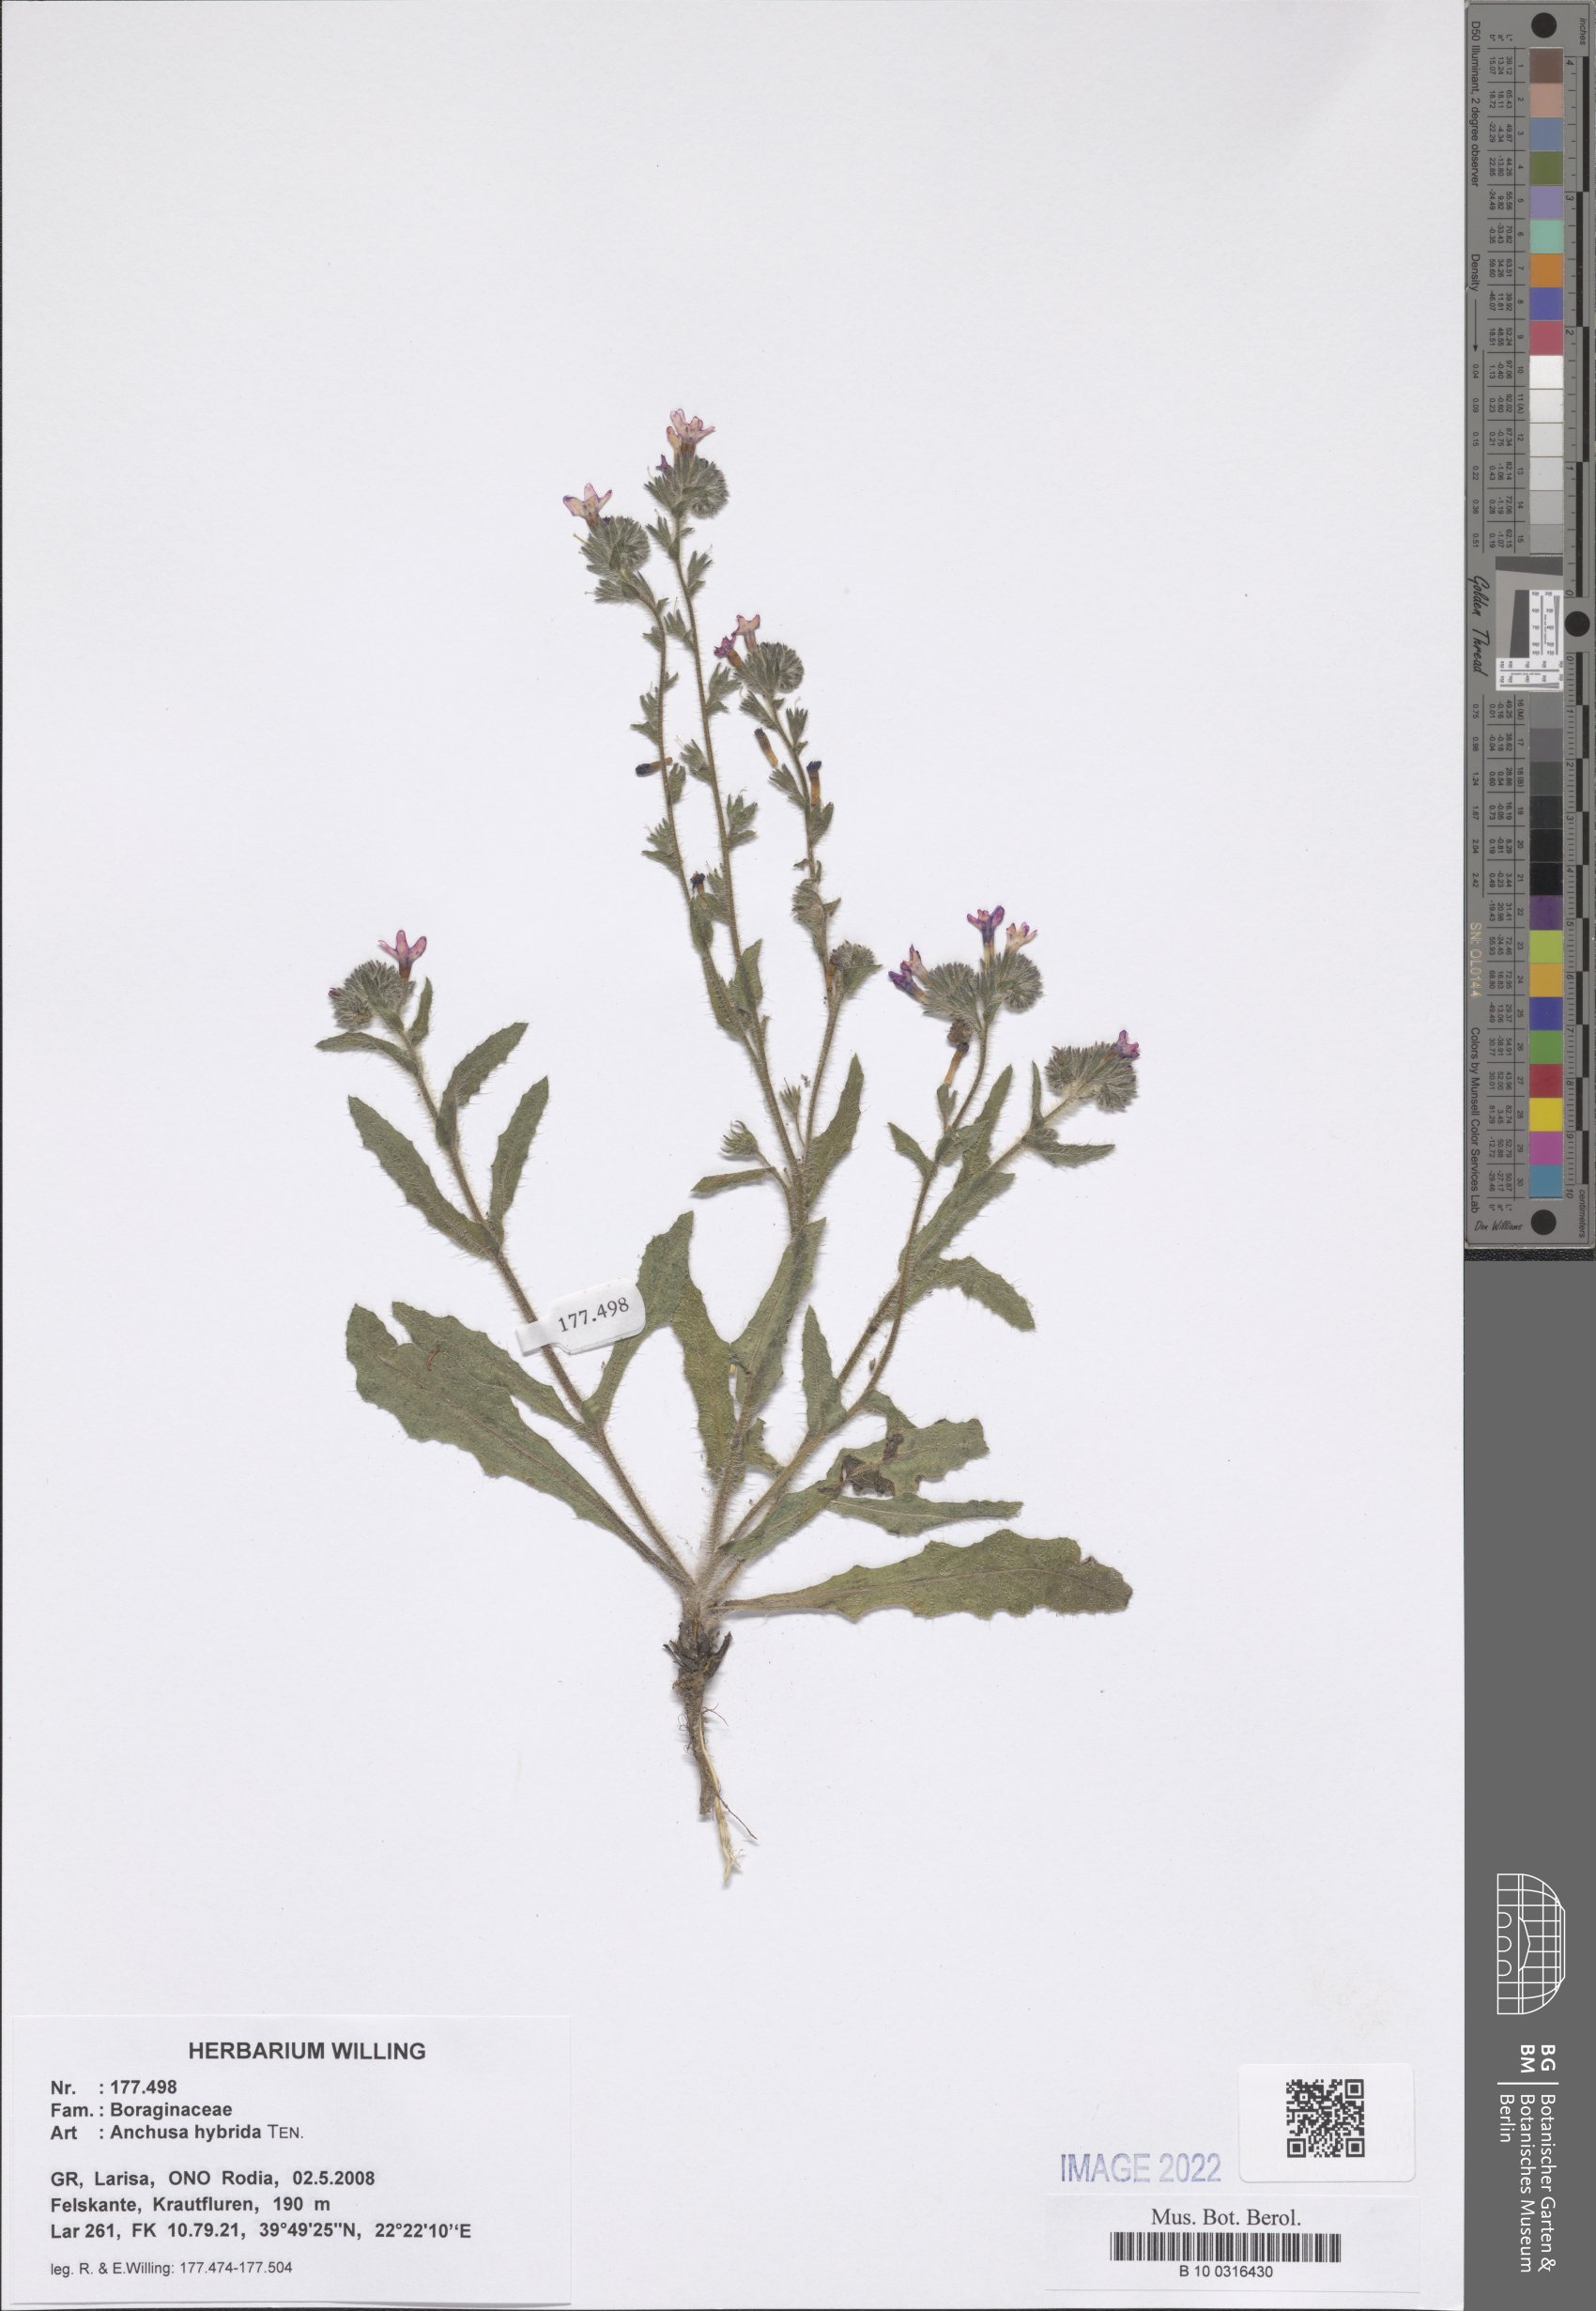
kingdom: Plantae
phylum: Tracheophyta
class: Magnoliopsida
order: Boraginales
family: Boraginaceae
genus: Anchusa
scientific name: Anchusa hybrida
